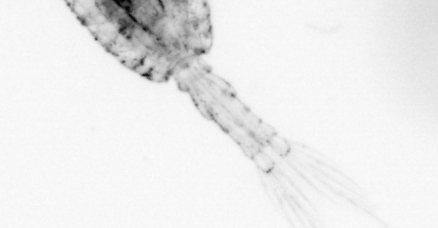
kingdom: Animalia
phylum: Arthropoda
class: Copepoda
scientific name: Copepoda
